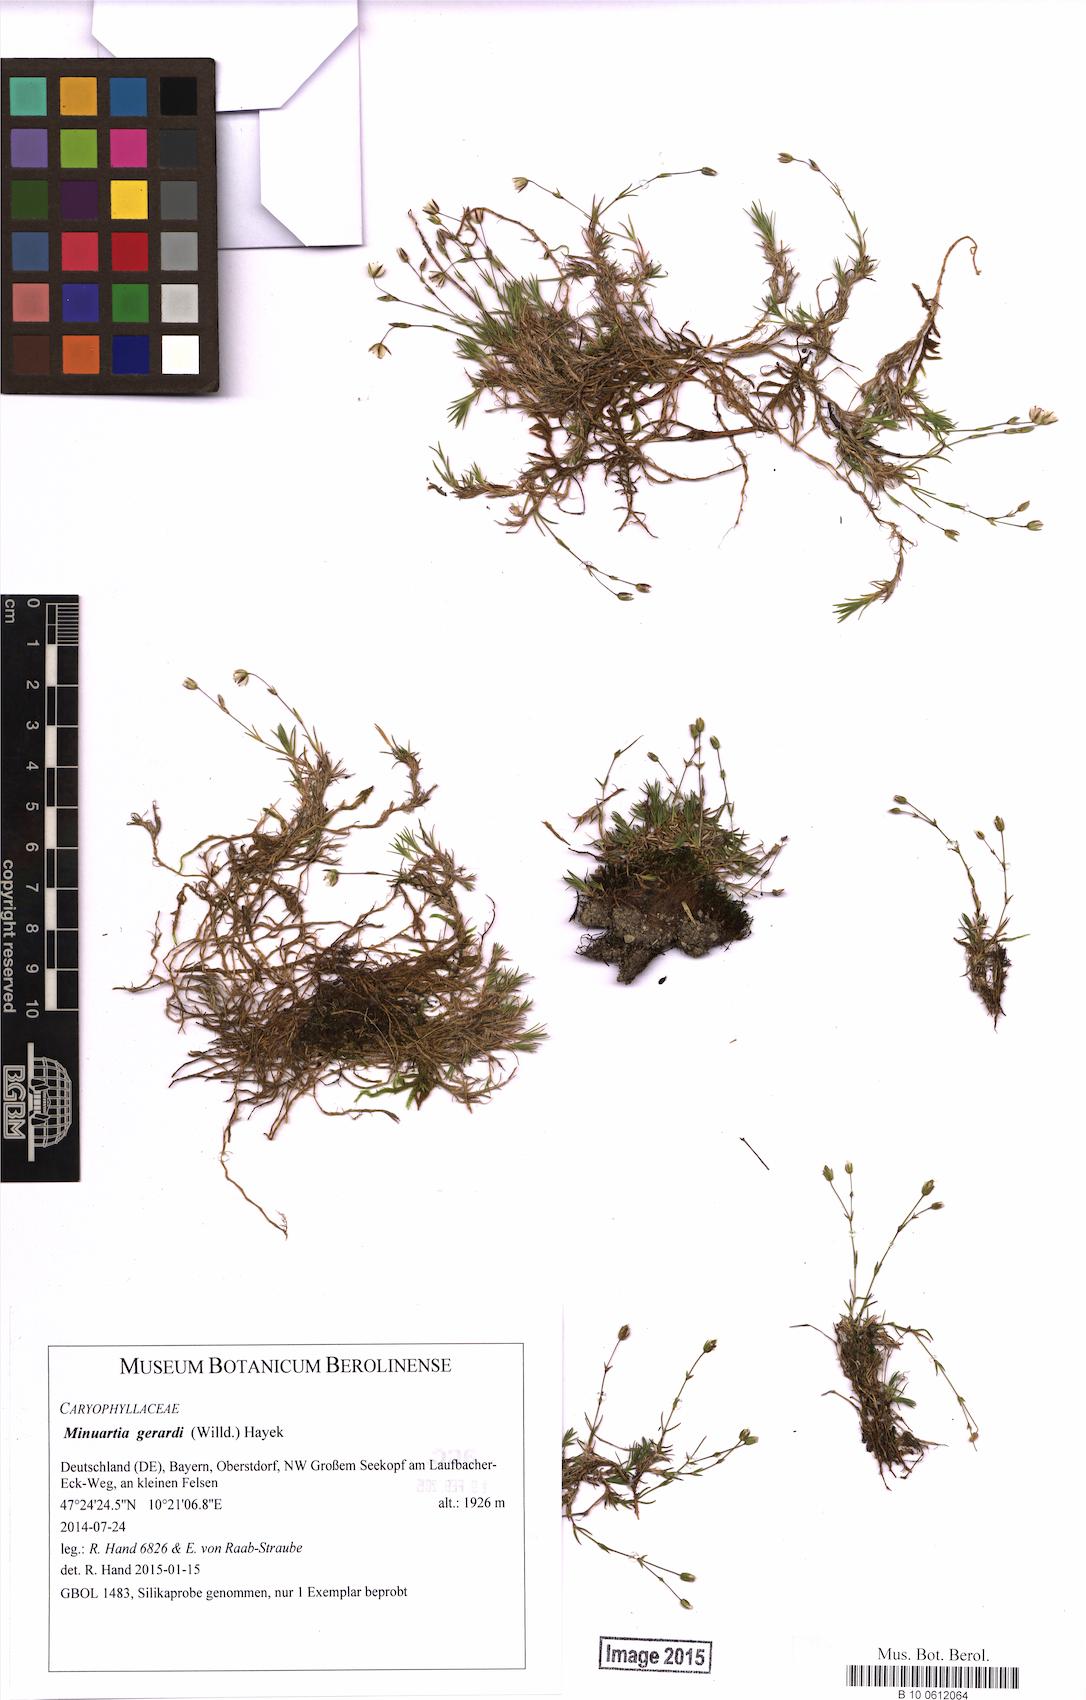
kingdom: Plantae
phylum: Tracheophyta
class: Magnoliopsida
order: Caryophyllales
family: Caryophyllaceae
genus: Sabulina
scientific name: Sabulina verna
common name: Spring sandwort
